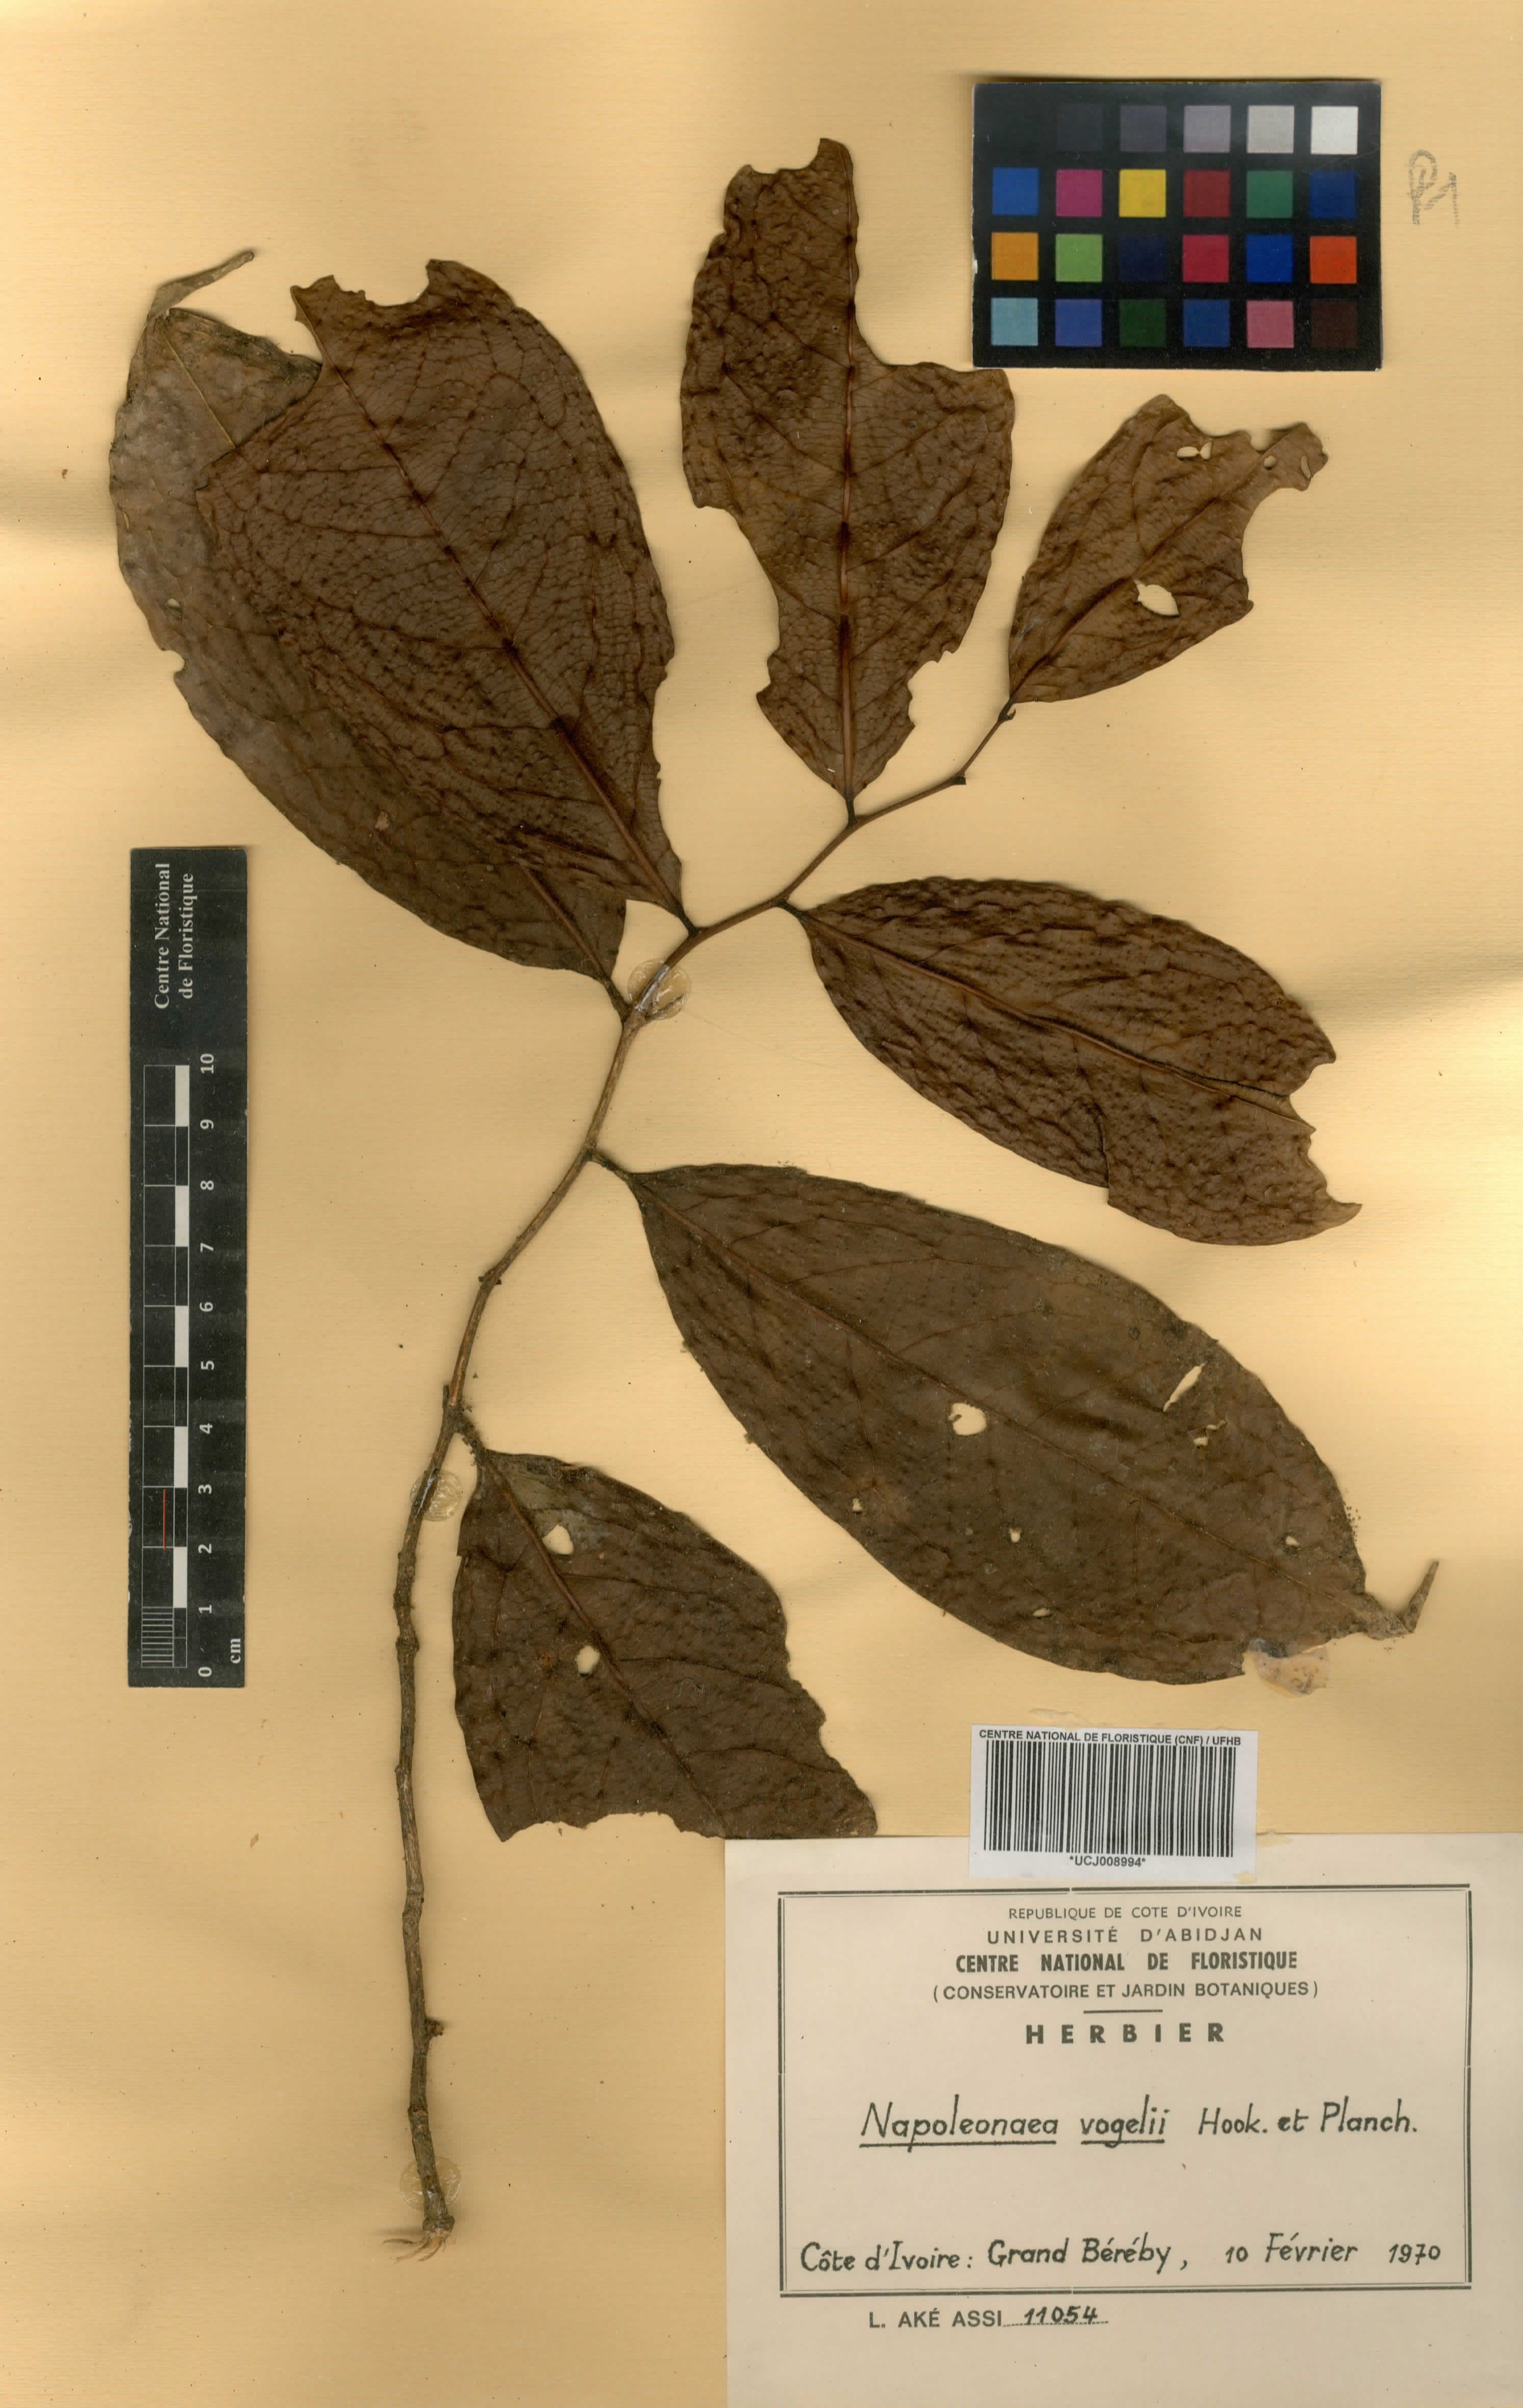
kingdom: Plantae
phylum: Tracheophyta
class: Magnoliopsida
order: Ericales
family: Lecythidaceae
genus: Napoleonaea
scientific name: Napoleonaea vogelii
